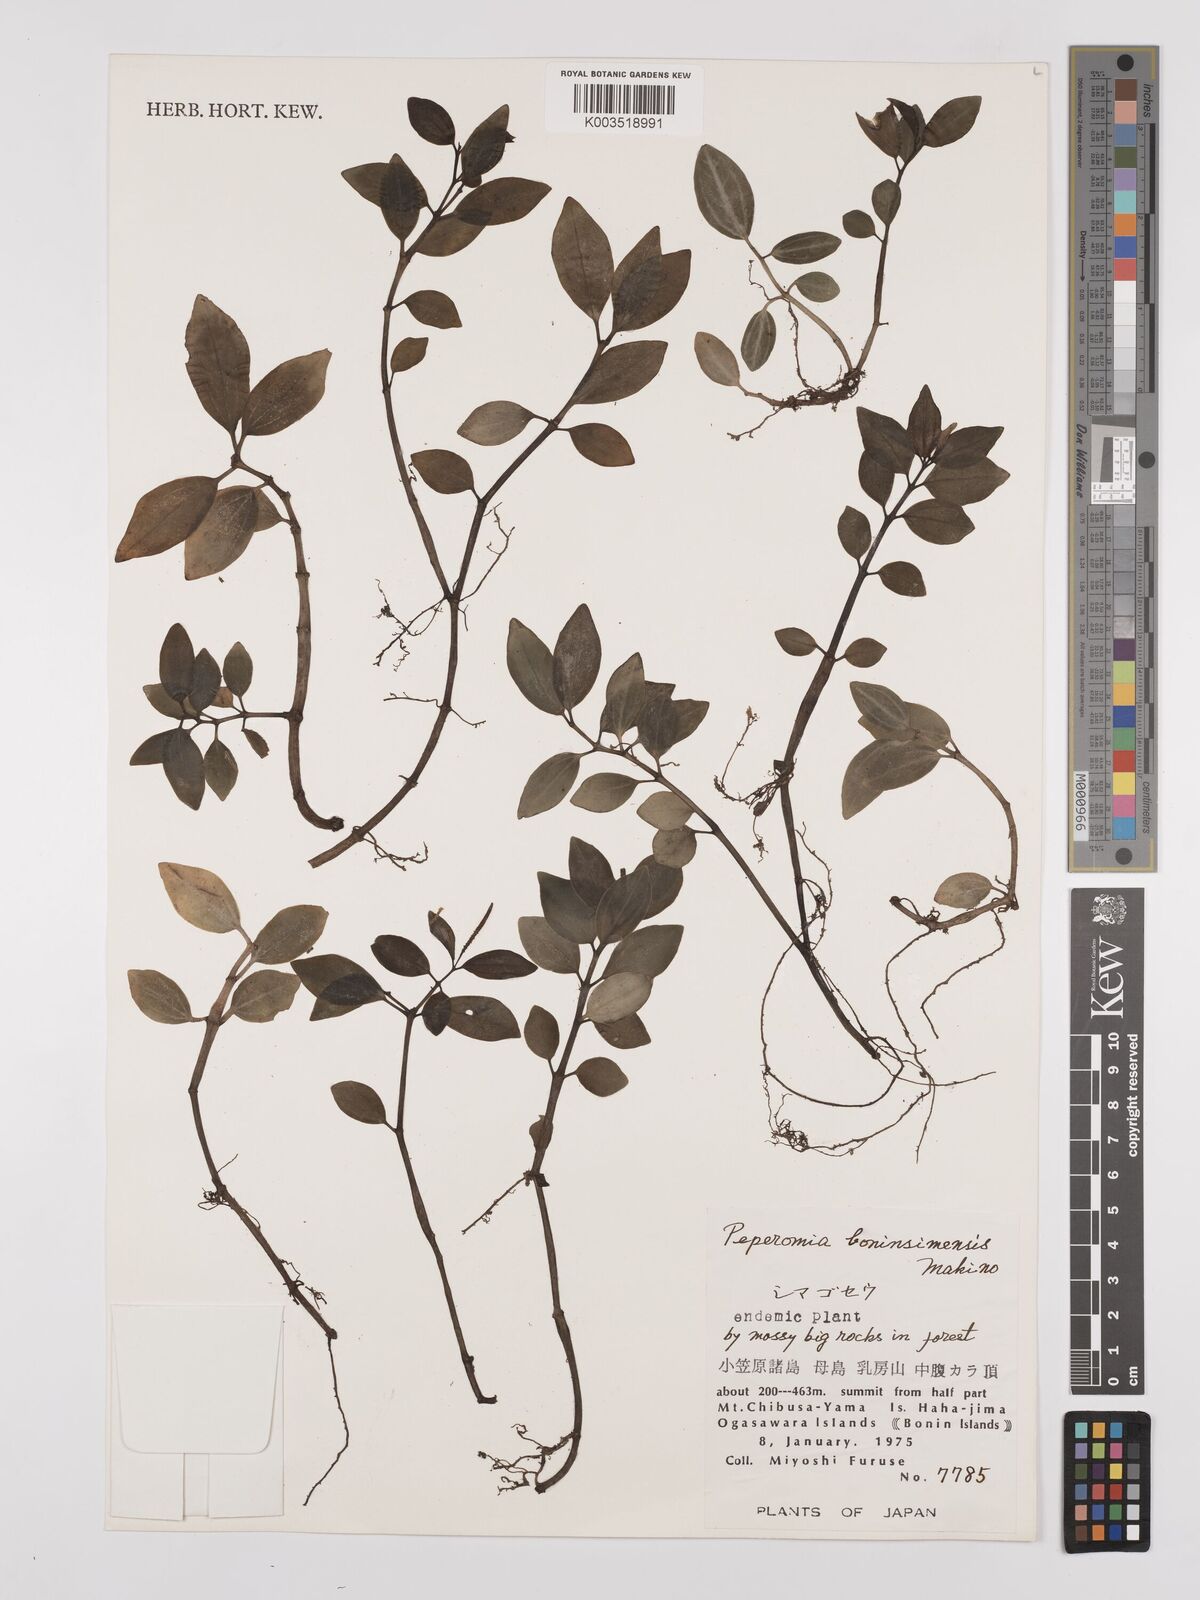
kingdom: Plantae
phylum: Tracheophyta
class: Magnoliopsida
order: Piperales
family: Piperaceae
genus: Peperomia
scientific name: Peperomia boninsimensis
